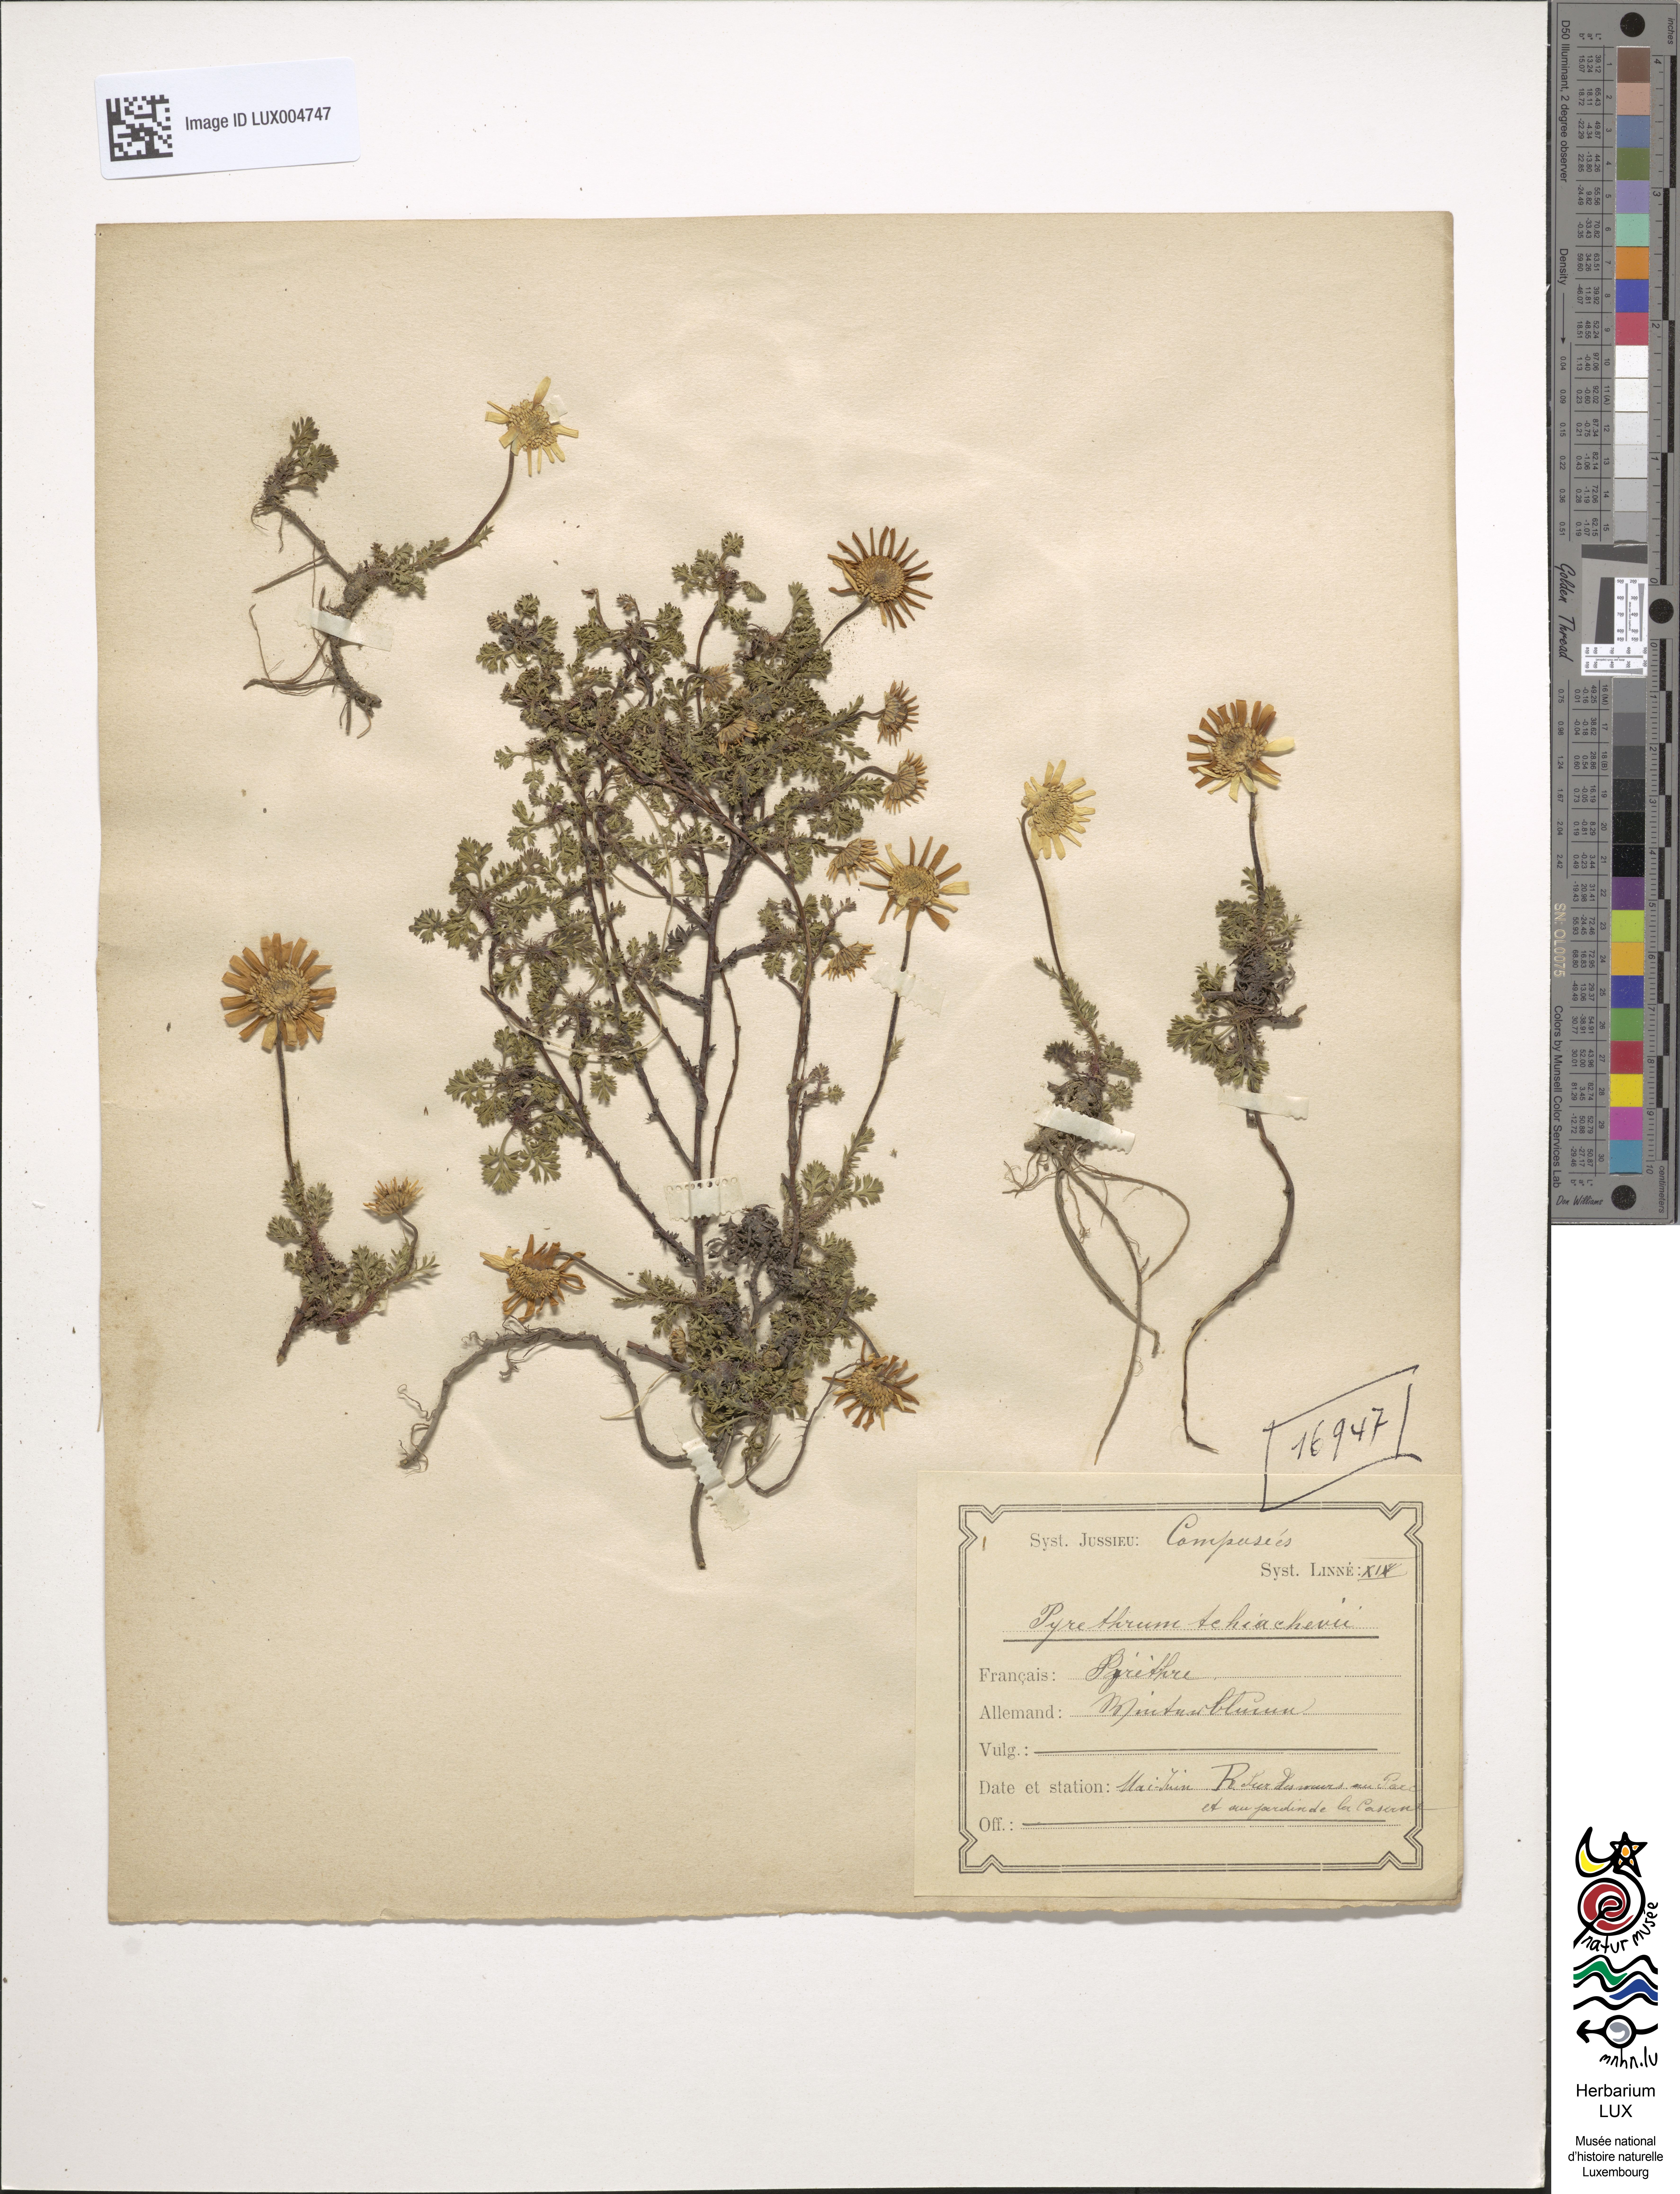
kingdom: Plantae
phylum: Tracheophyta
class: Magnoliopsida
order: Asterales
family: Asteraceae
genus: Matricaria
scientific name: Matricaria
